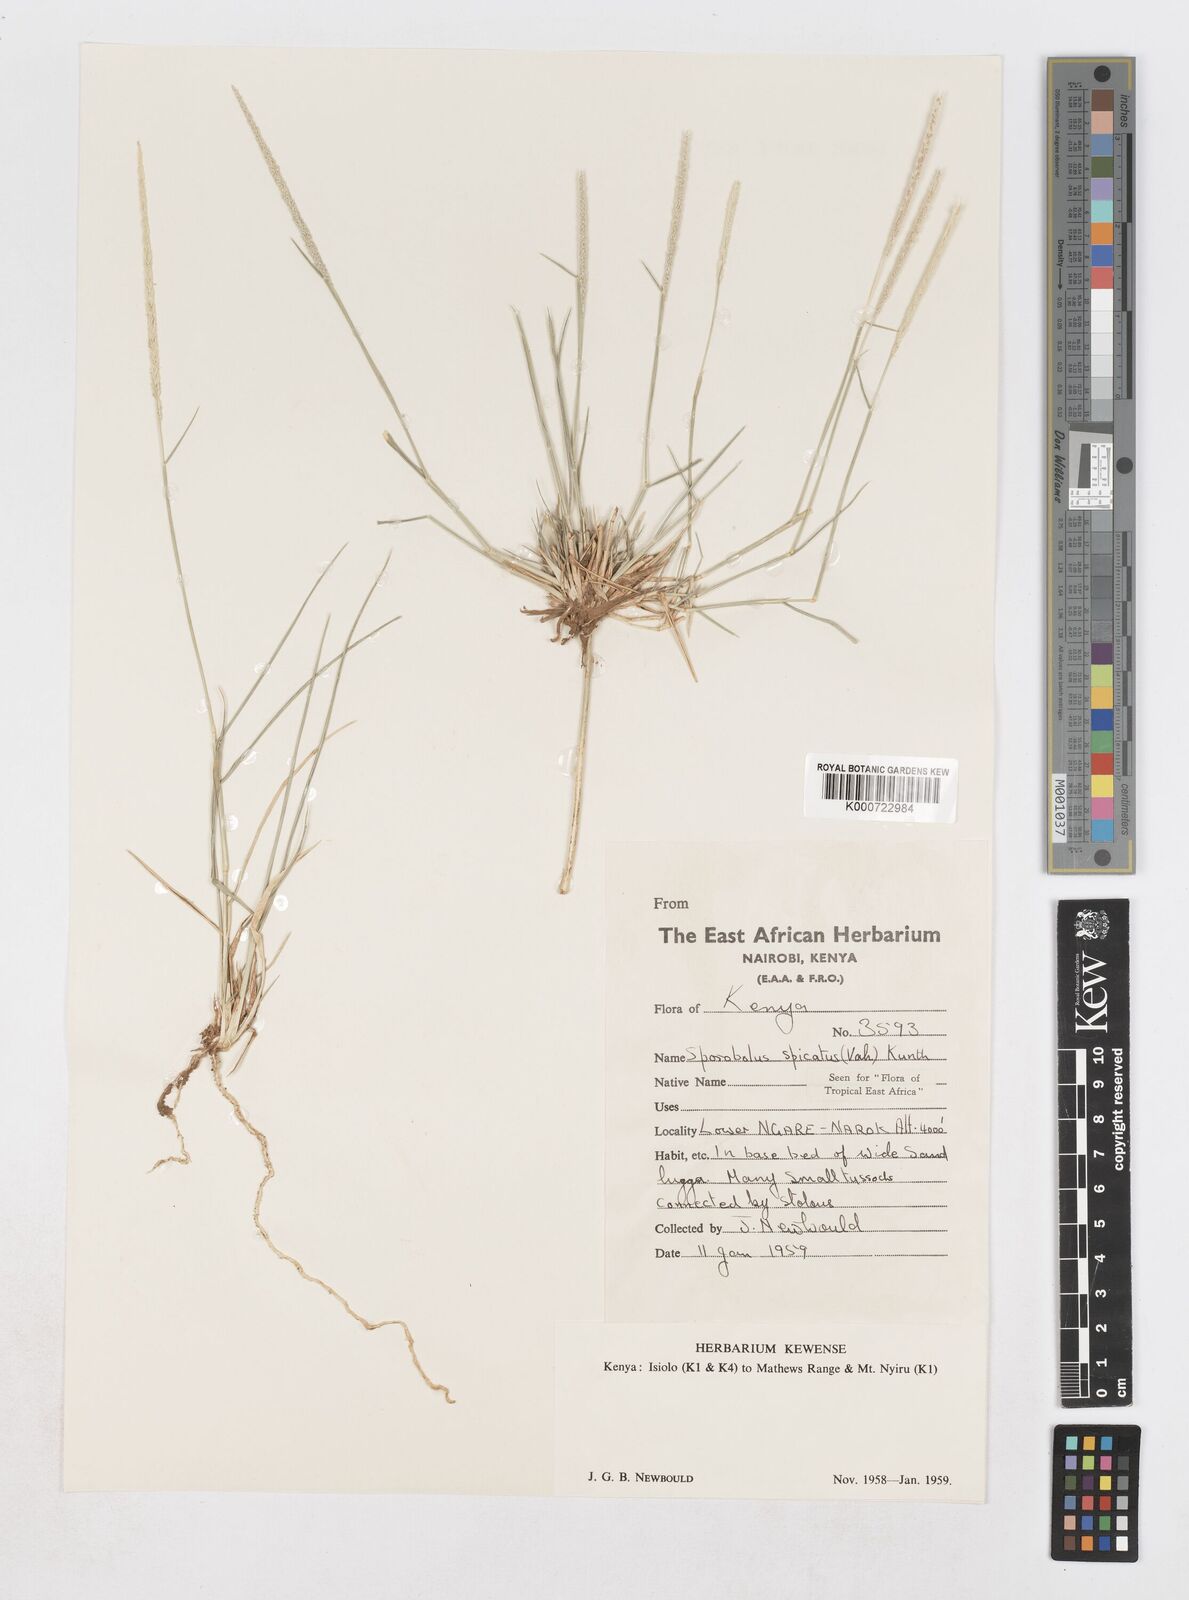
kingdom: Plantae
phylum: Tracheophyta
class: Liliopsida
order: Poales
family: Poaceae
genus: Sporobolus
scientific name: Sporobolus spicatus
